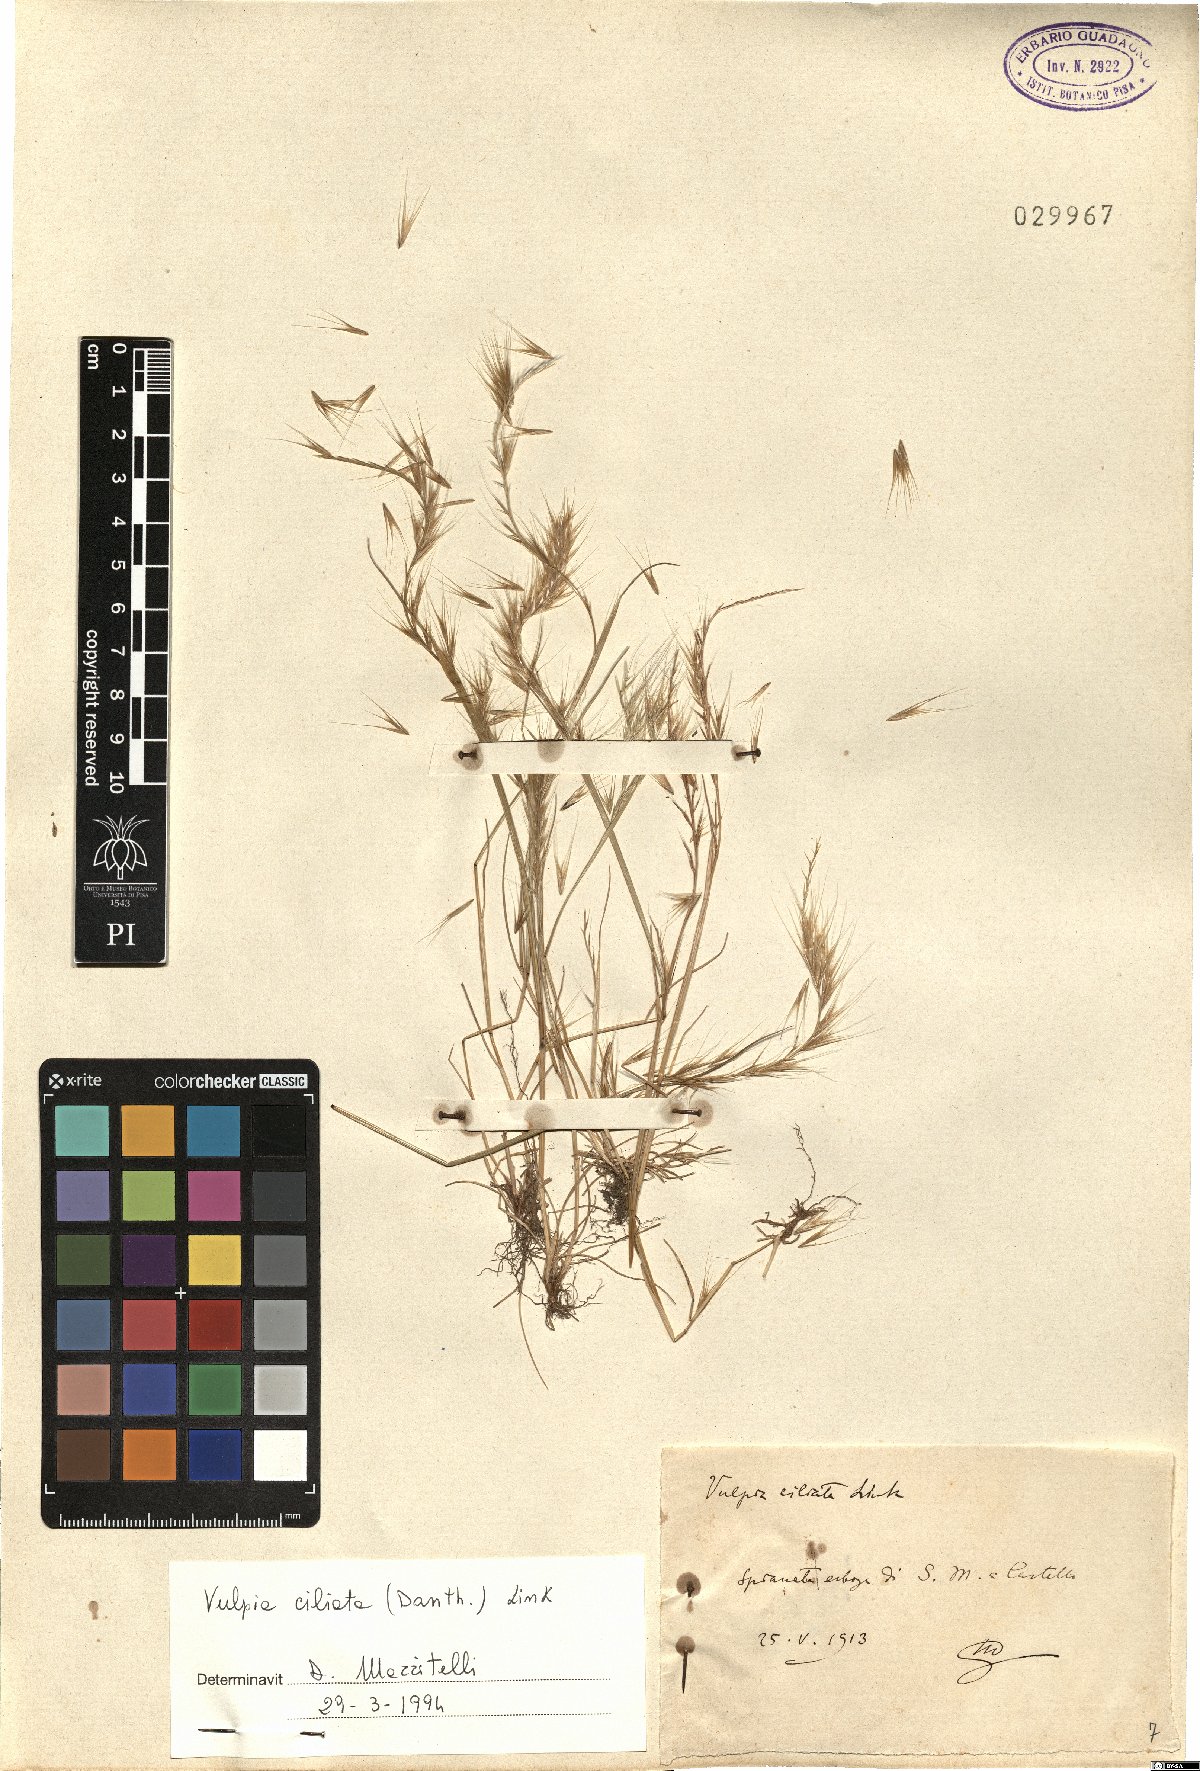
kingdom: Plantae
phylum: Tracheophyta
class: Liliopsida
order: Poales
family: Poaceae
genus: Festuca
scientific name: Festuca ambigua
